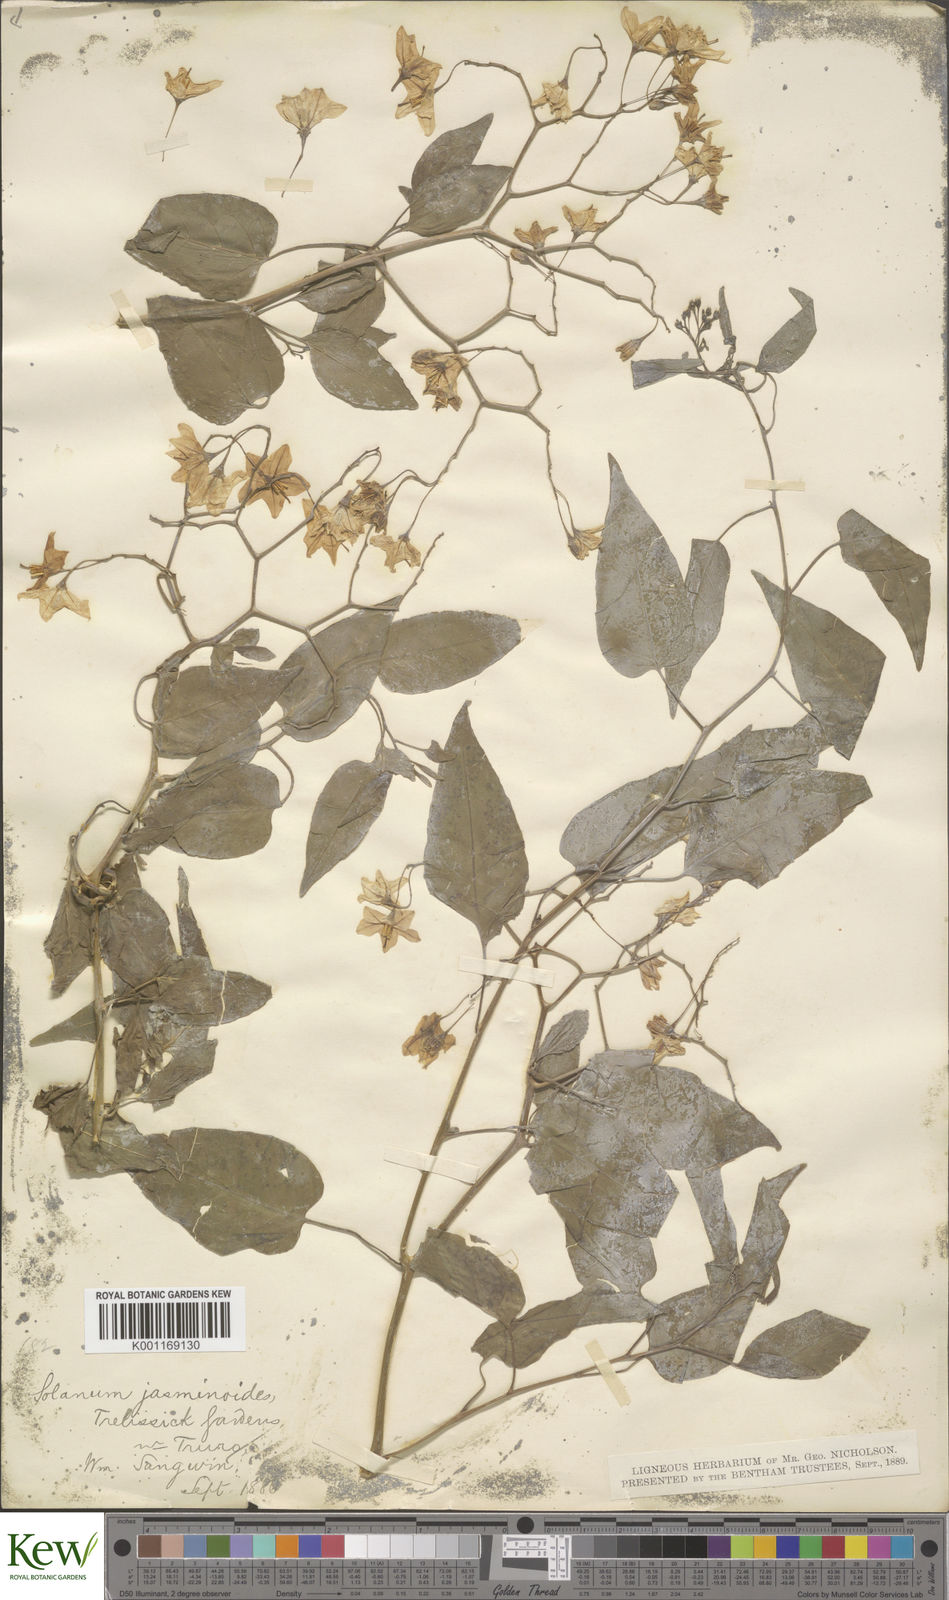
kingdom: Plantae
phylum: Tracheophyta
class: Magnoliopsida
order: Solanales
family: Solanaceae
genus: Solanum
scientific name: Solanum laxum
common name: Nightshade
